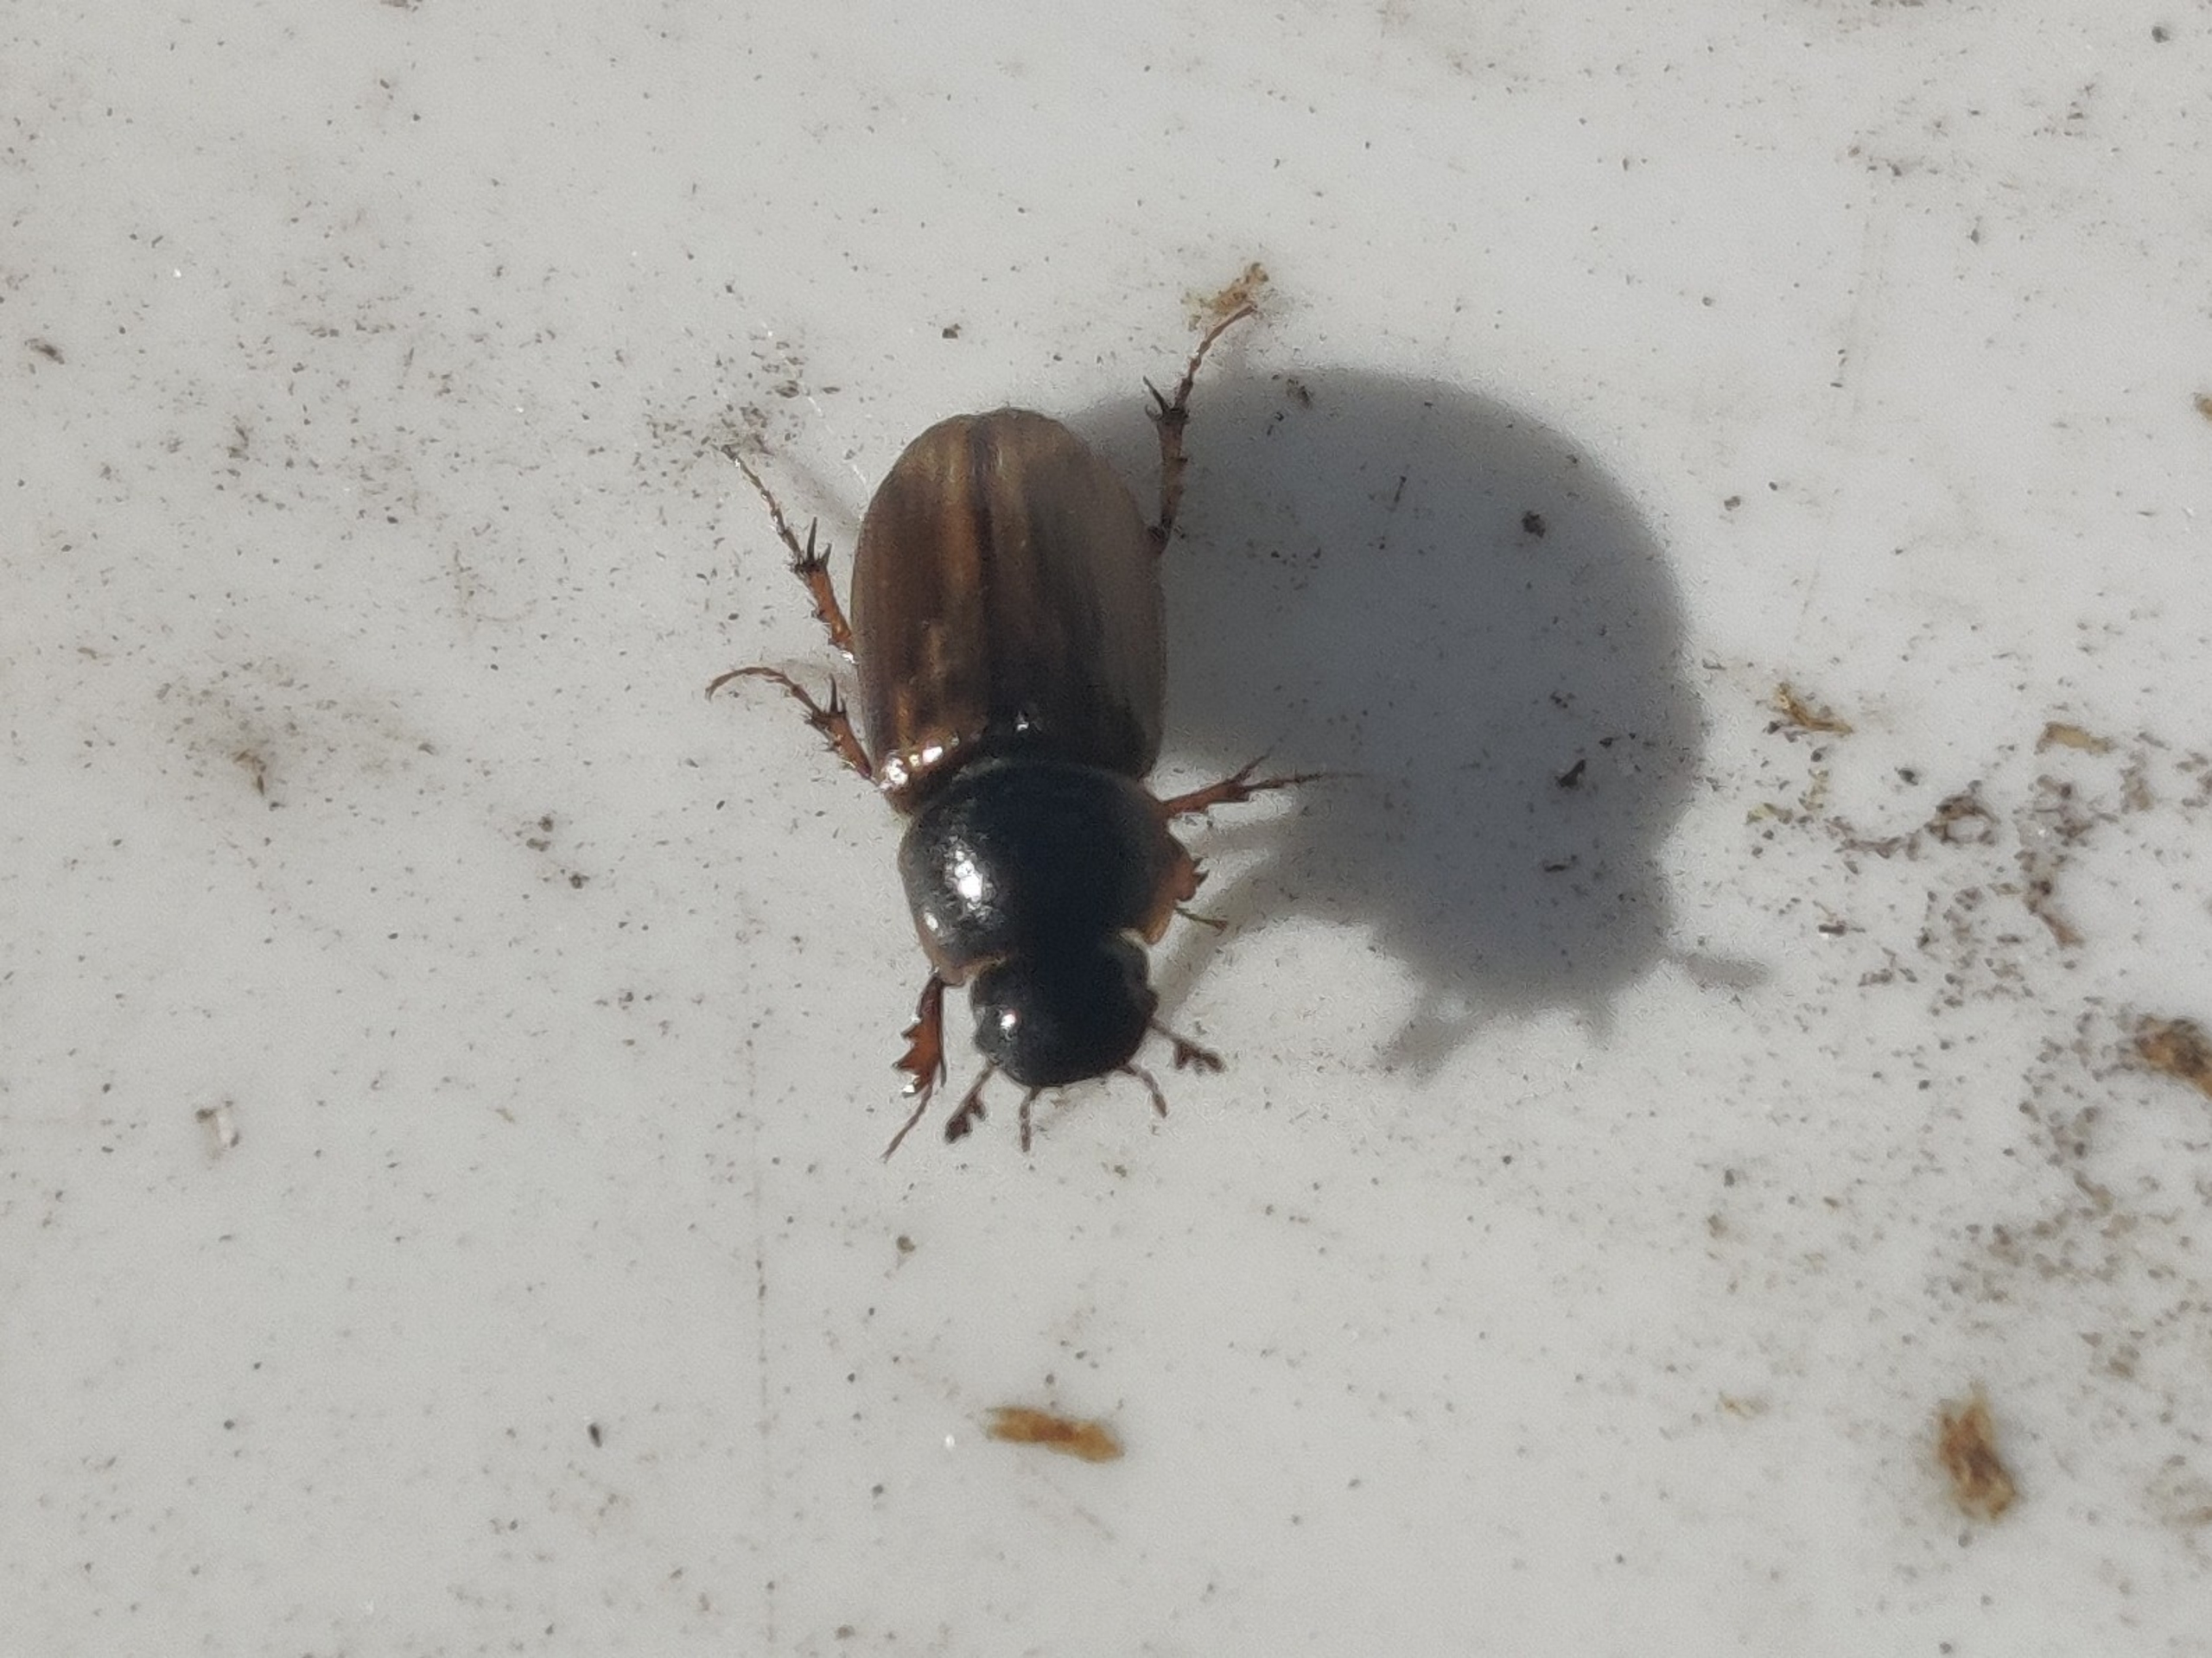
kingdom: Animalia
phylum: Arthropoda
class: Insecta
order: Coleoptera
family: Scarabaeidae
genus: Melinopterus
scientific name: Melinopterus prodromus
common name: Almindelig møgbille
